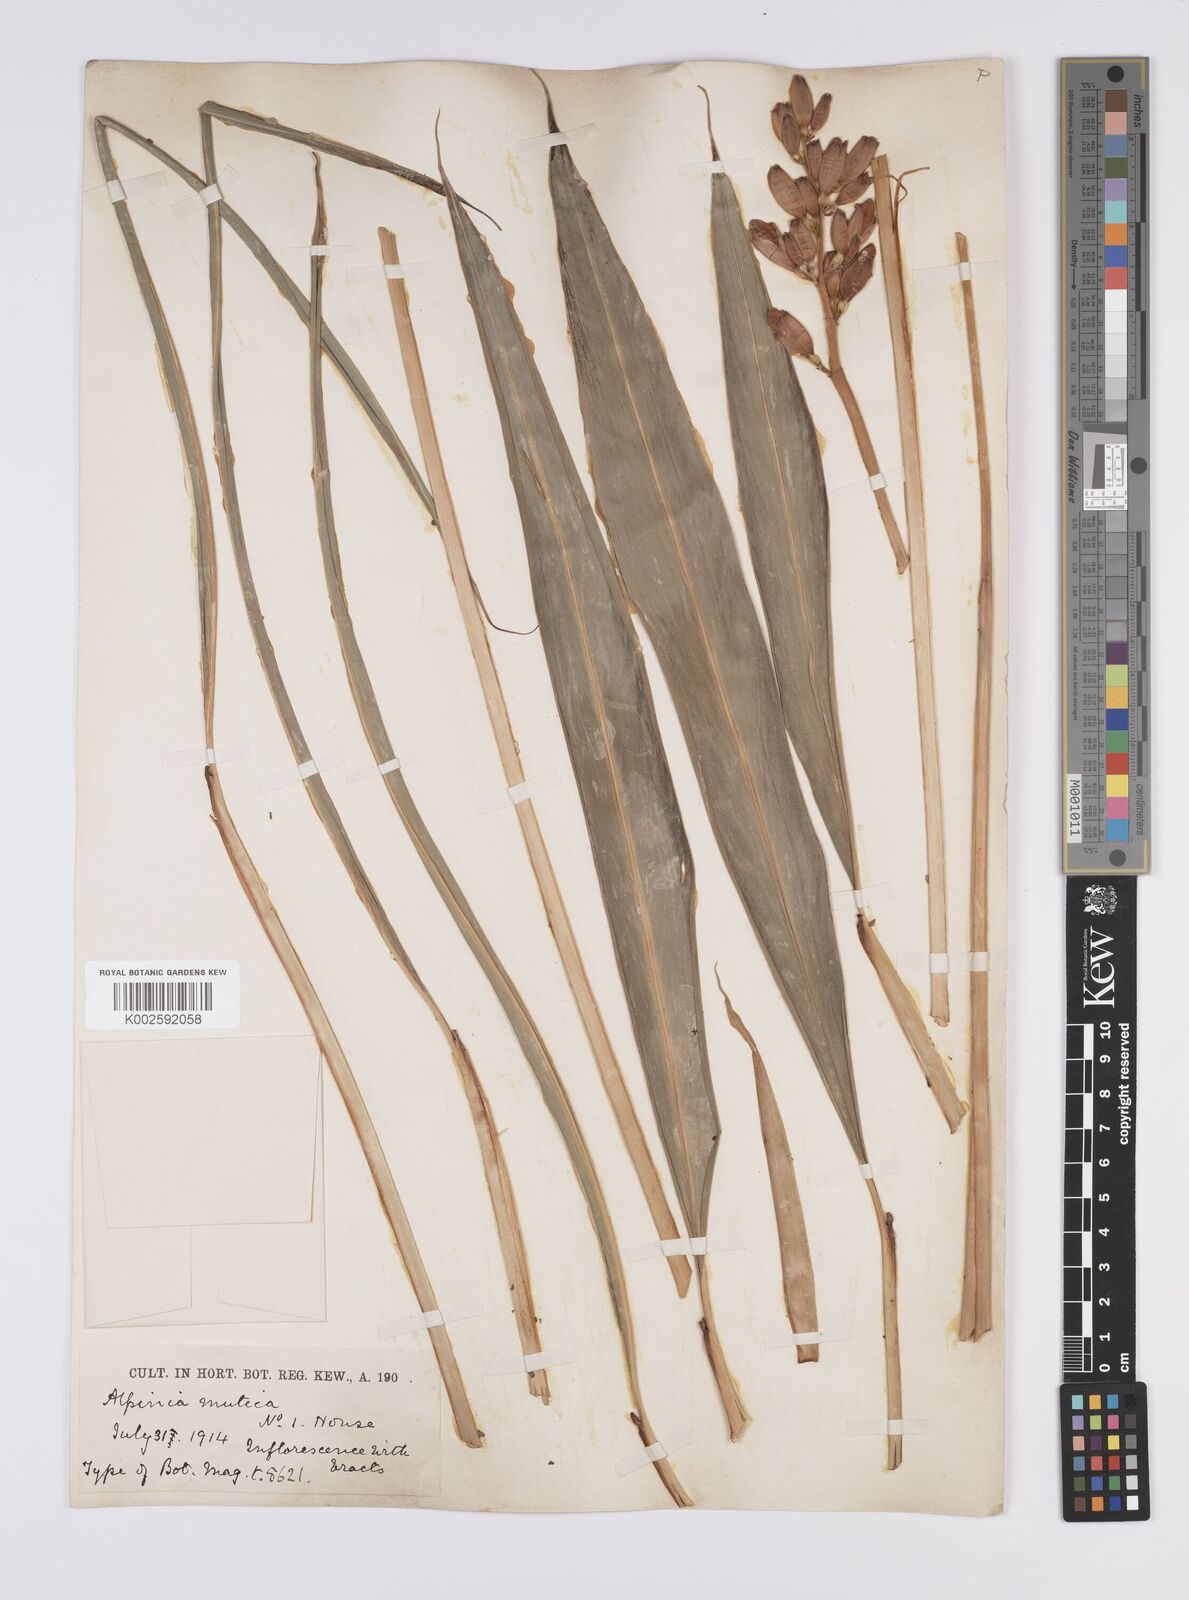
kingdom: Plantae
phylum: Tracheophyta
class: Liliopsida
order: Zingiberales
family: Zingiberaceae
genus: Alpinia
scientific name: Alpinia mutica
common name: Small shell ginger
